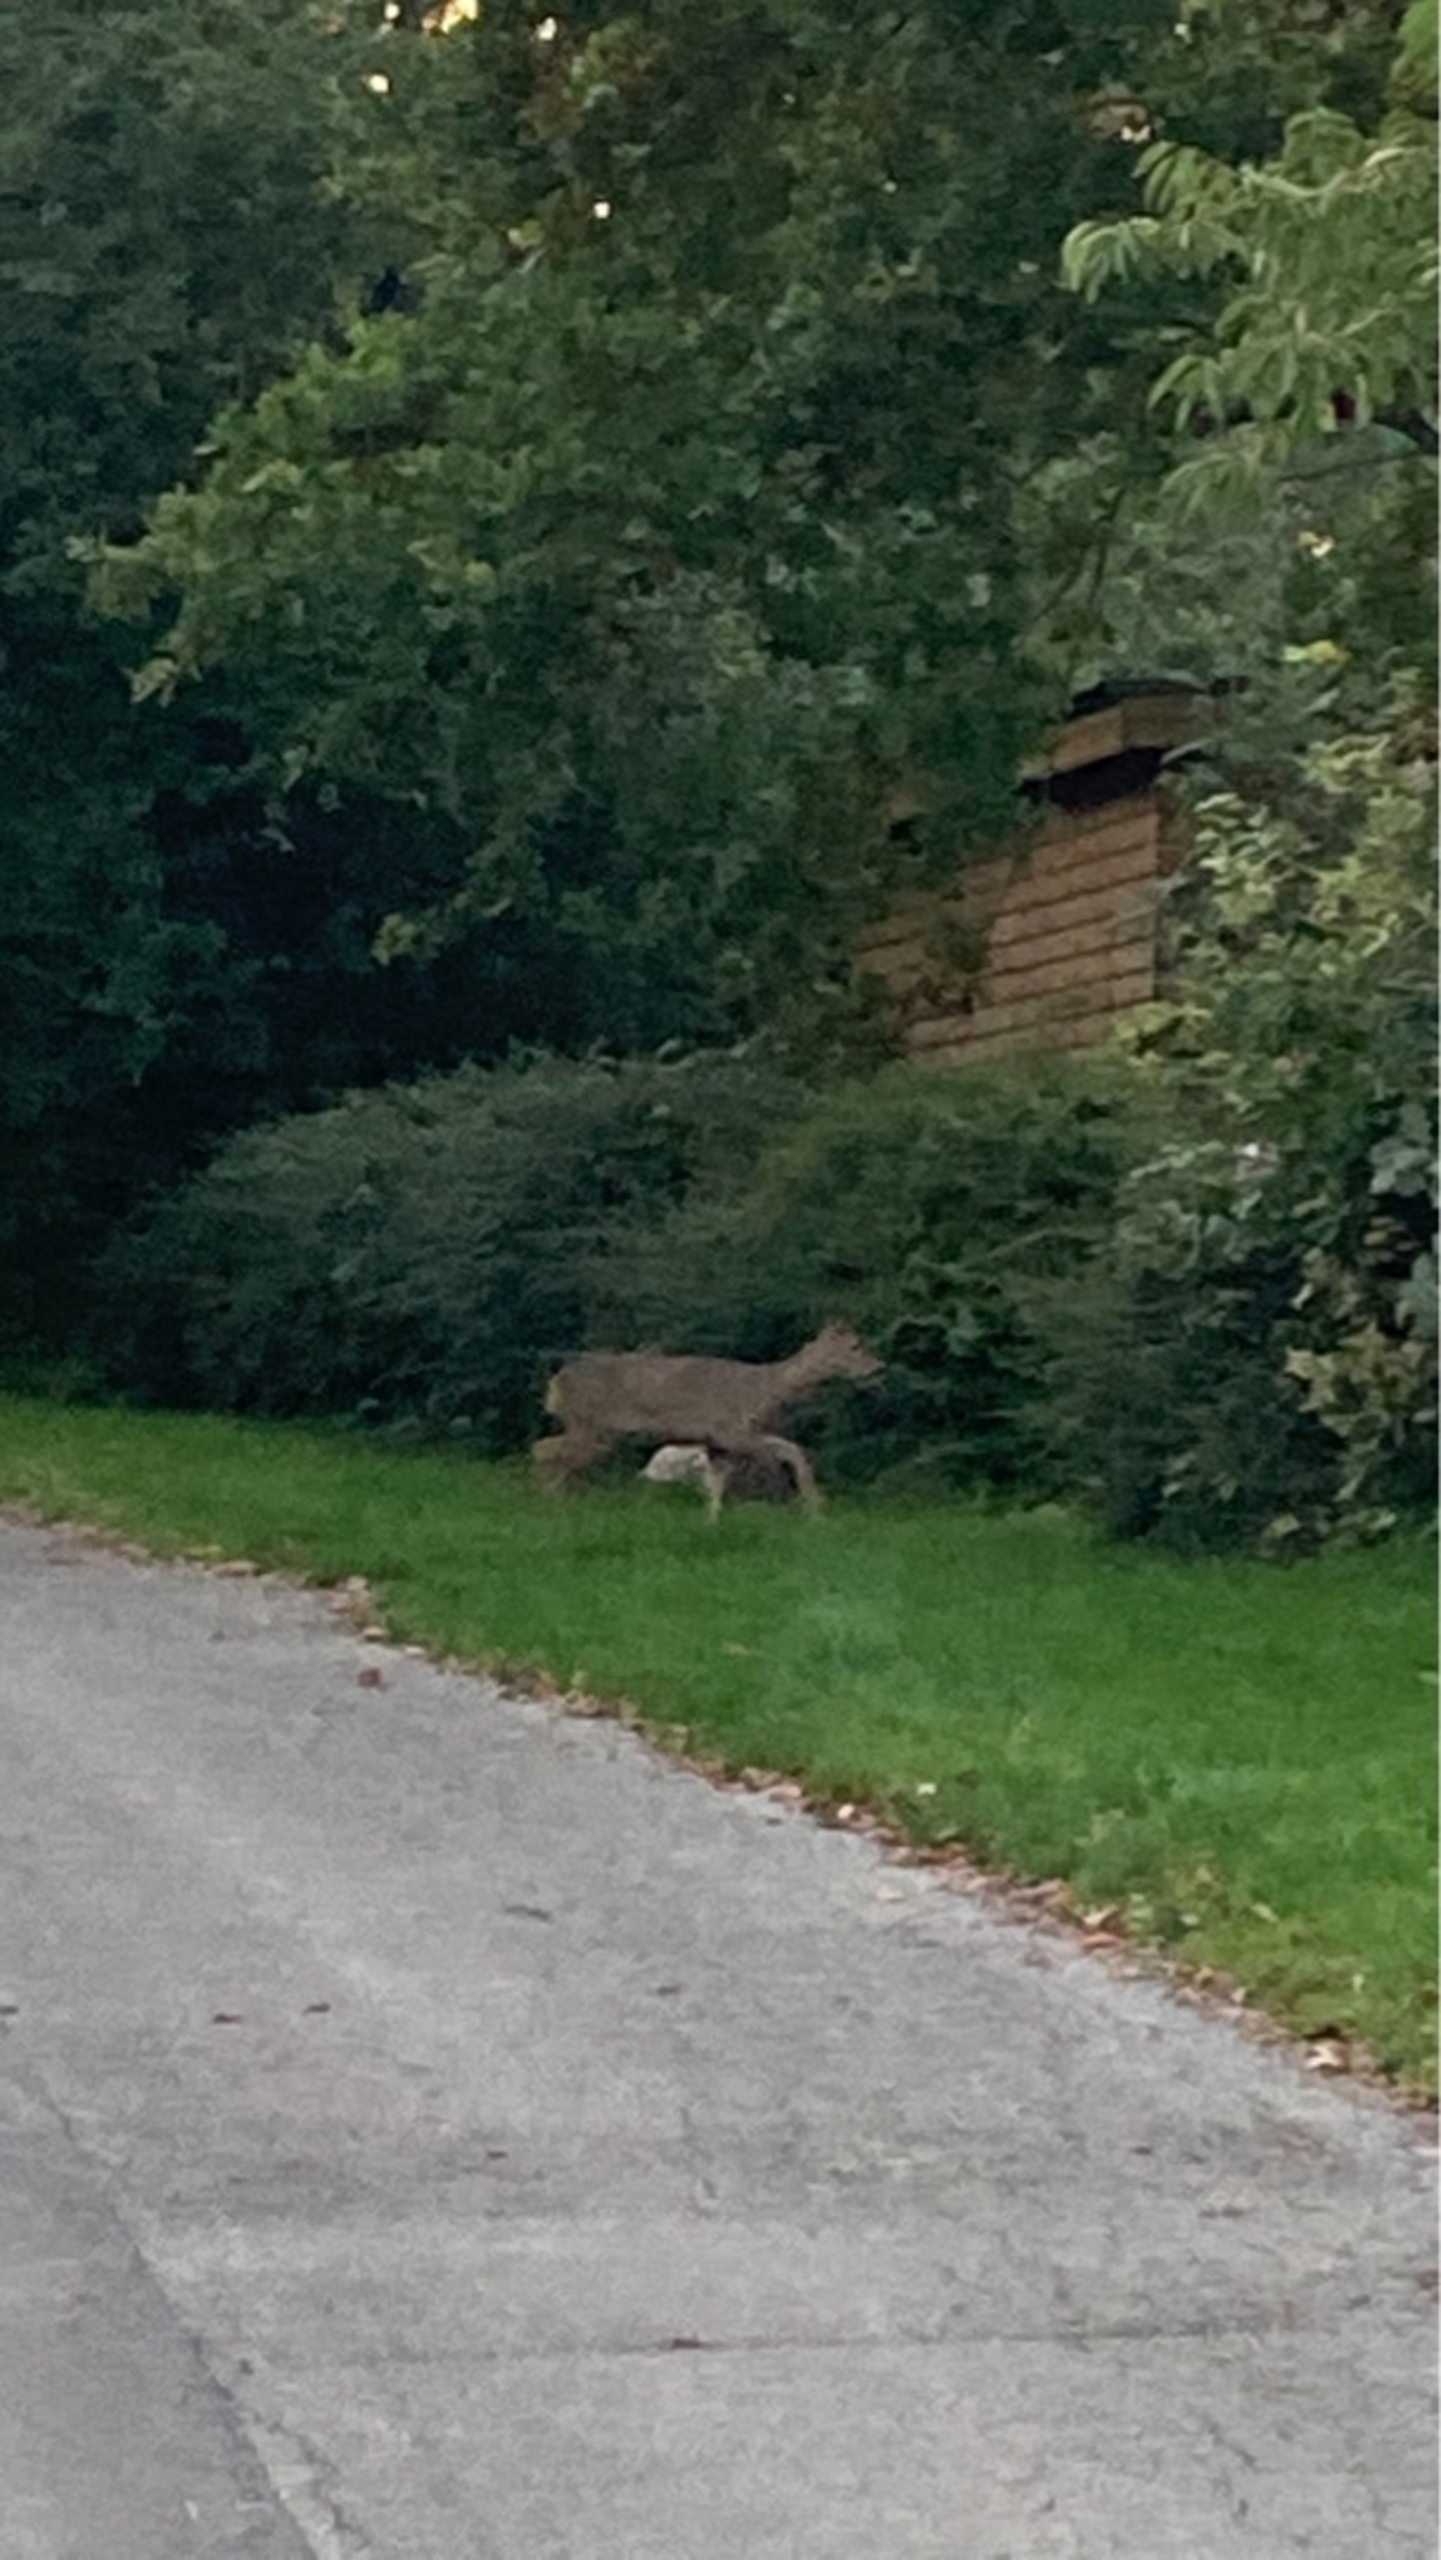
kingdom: Animalia
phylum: Chordata
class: Mammalia
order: Artiodactyla
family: Cervidae
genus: Capreolus
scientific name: Capreolus capreolus
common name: Rådyr
